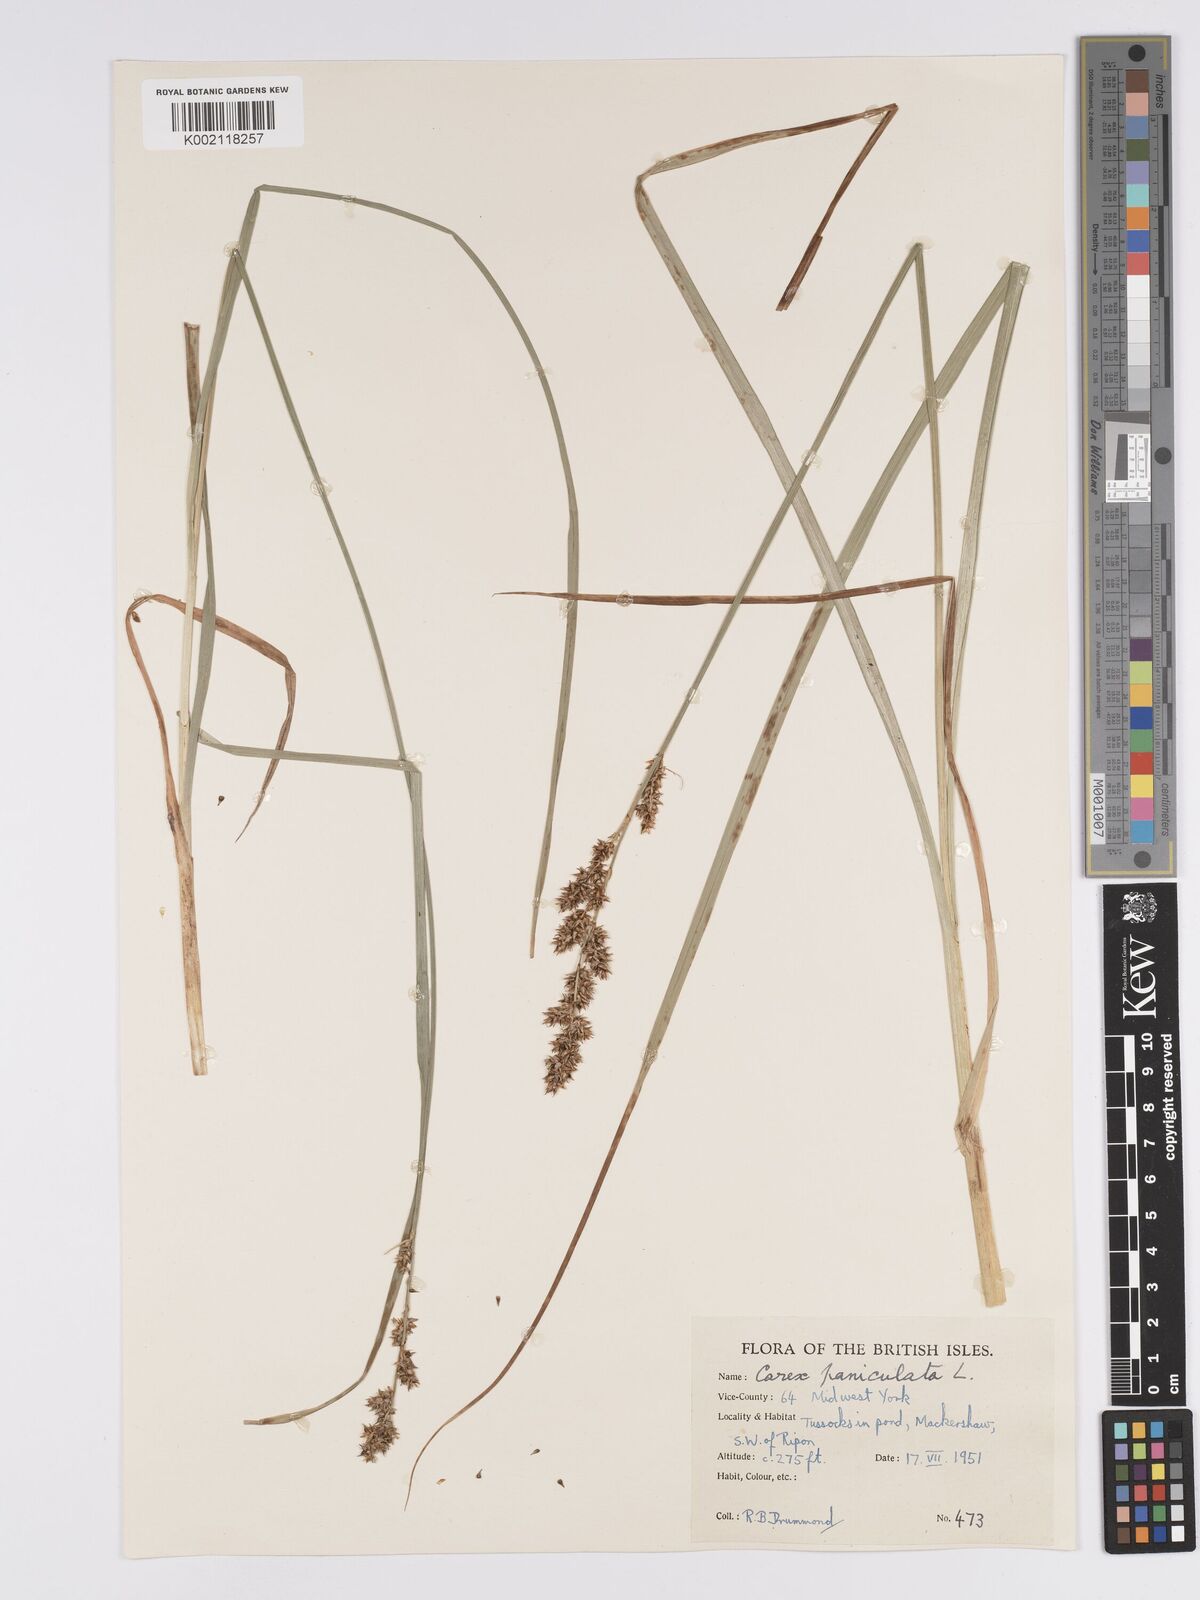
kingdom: Plantae
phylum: Tracheophyta
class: Liliopsida
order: Poales
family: Cyperaceae
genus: Carex
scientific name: Carex paniculata
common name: Greater tussock-sedge
